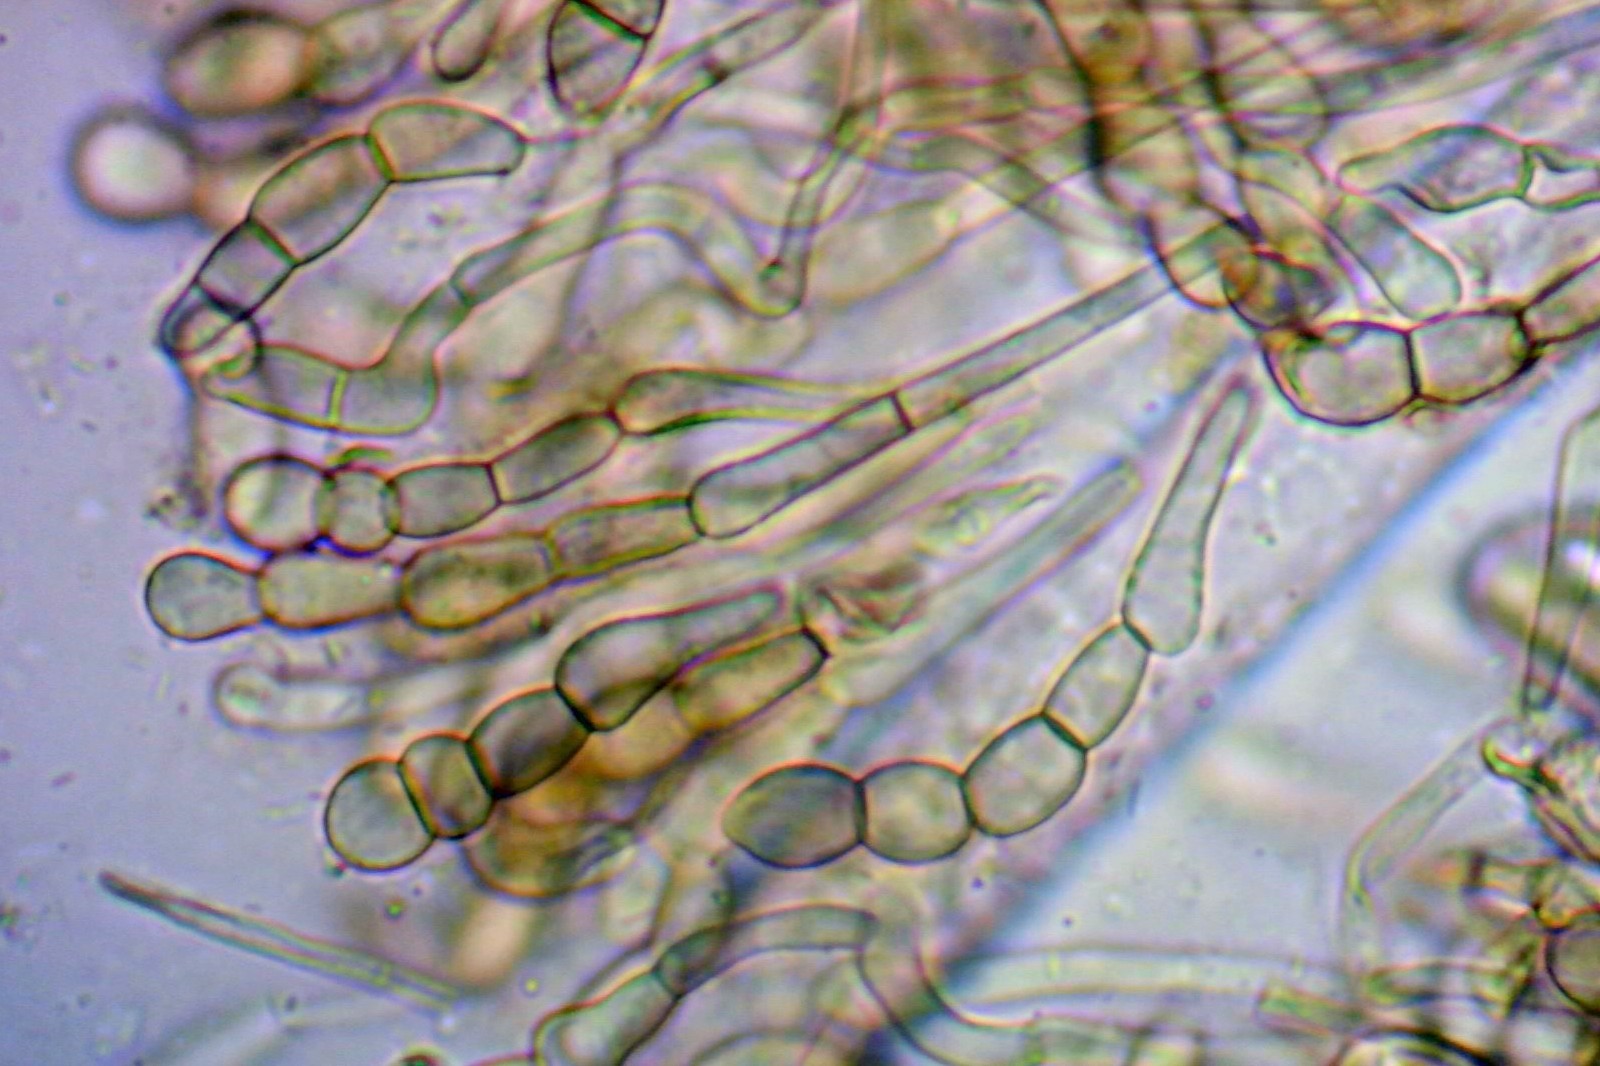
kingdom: Fungi
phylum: Ascomycota
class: Geoglossomycetes
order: Geoglossales
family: Geoglossaceae
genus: Geoglossum
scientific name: Geoglossum cookeianum
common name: bred jordtunge
